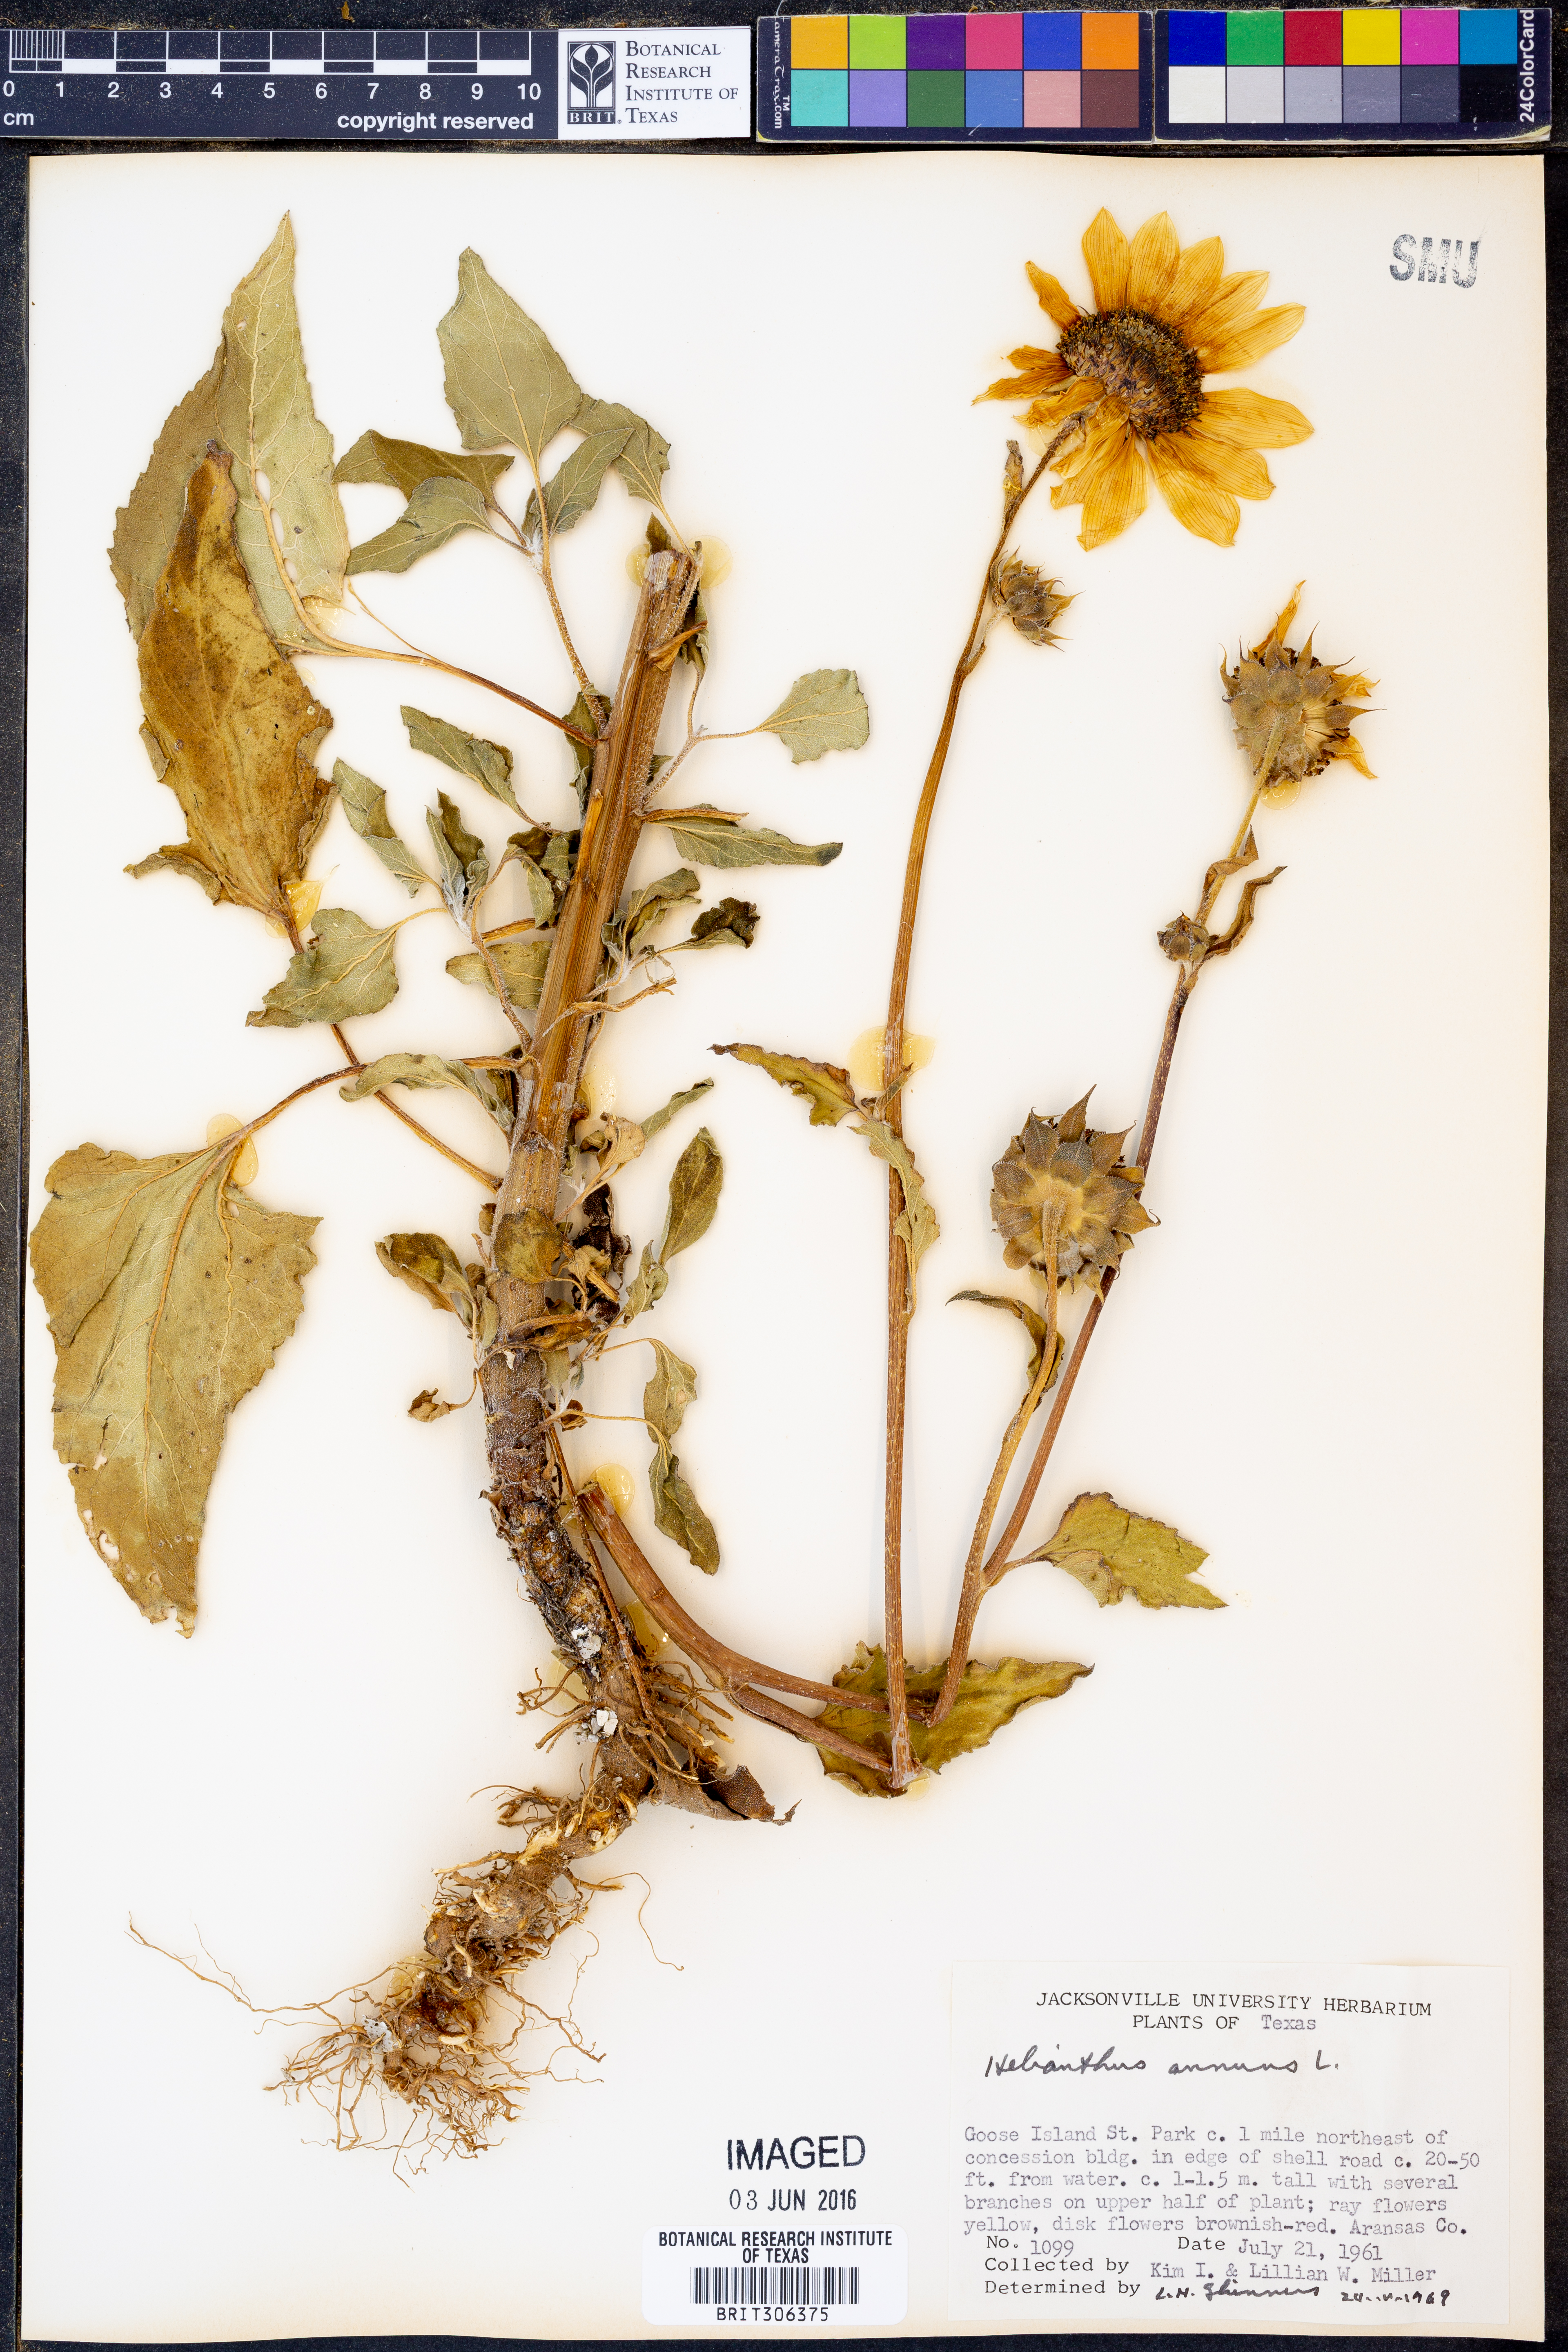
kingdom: Plantae
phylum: Tracheophyta
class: Magnoliopsida
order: Asterales
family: Asteraceae
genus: Helianthus
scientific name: Helianthus annuus
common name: Sunflower
